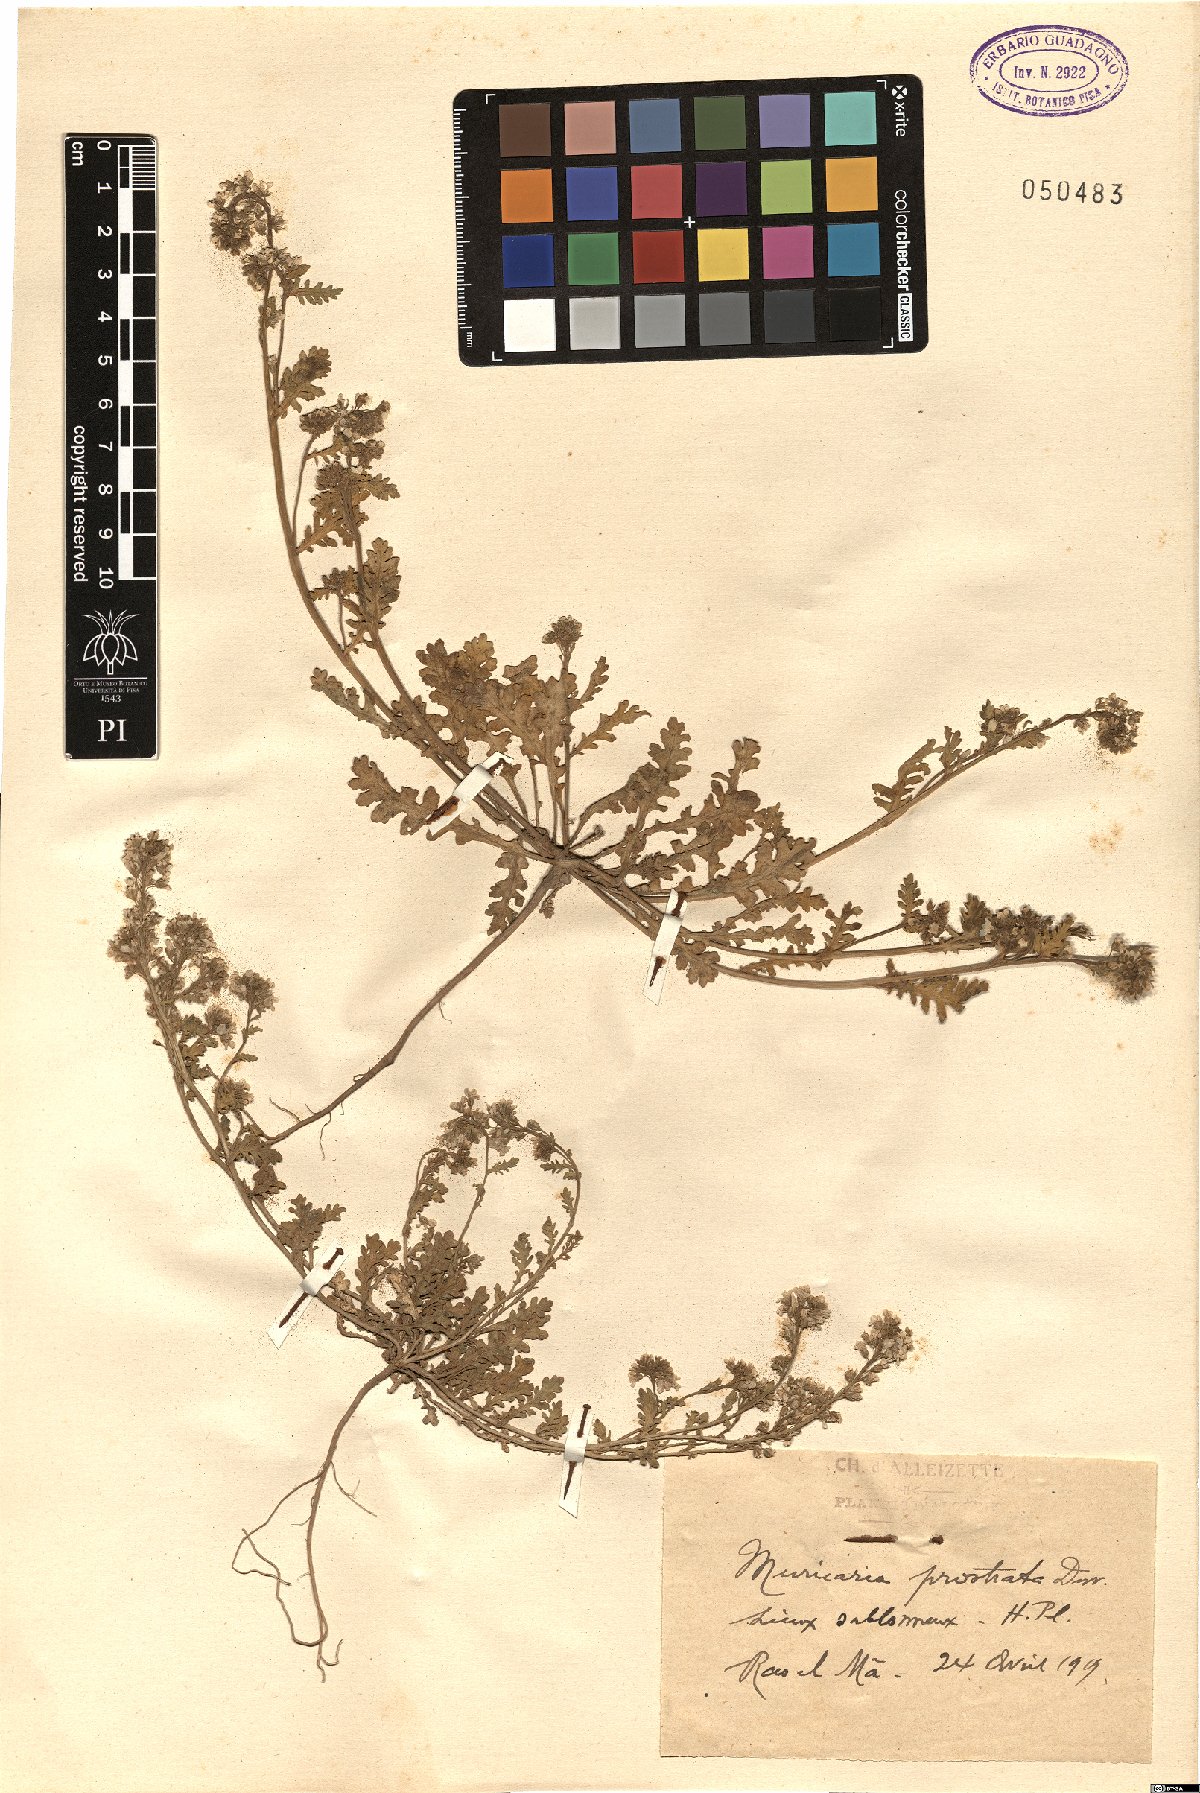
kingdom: Plantae
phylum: Tracheophyta
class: Magnoliopsida
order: Brassicales
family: Brassicaceae
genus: Muricaria
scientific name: Muricaria prostrata
